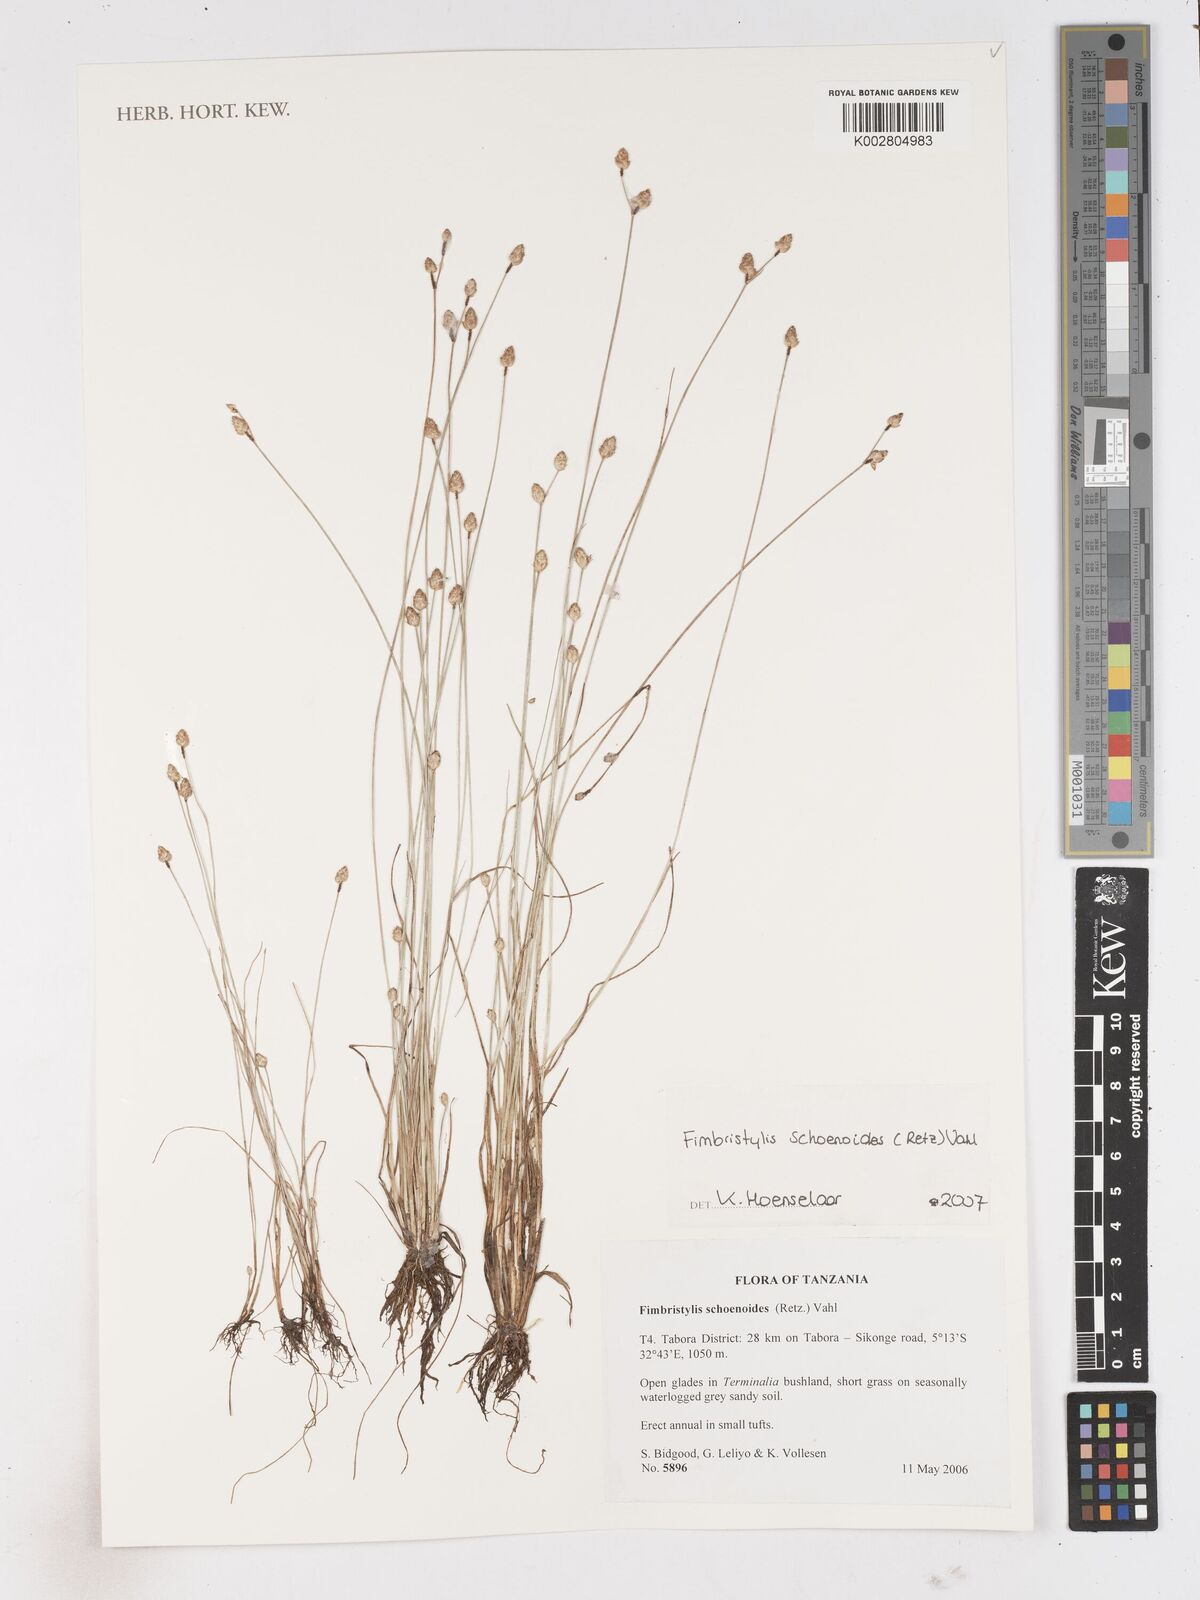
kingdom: Plantae
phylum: Tracheophyta
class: Liliopsida
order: Poales
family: Cyperaceae
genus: Fimbristylis
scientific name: Fimbristylis schoenoides
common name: Ditch fimbry
